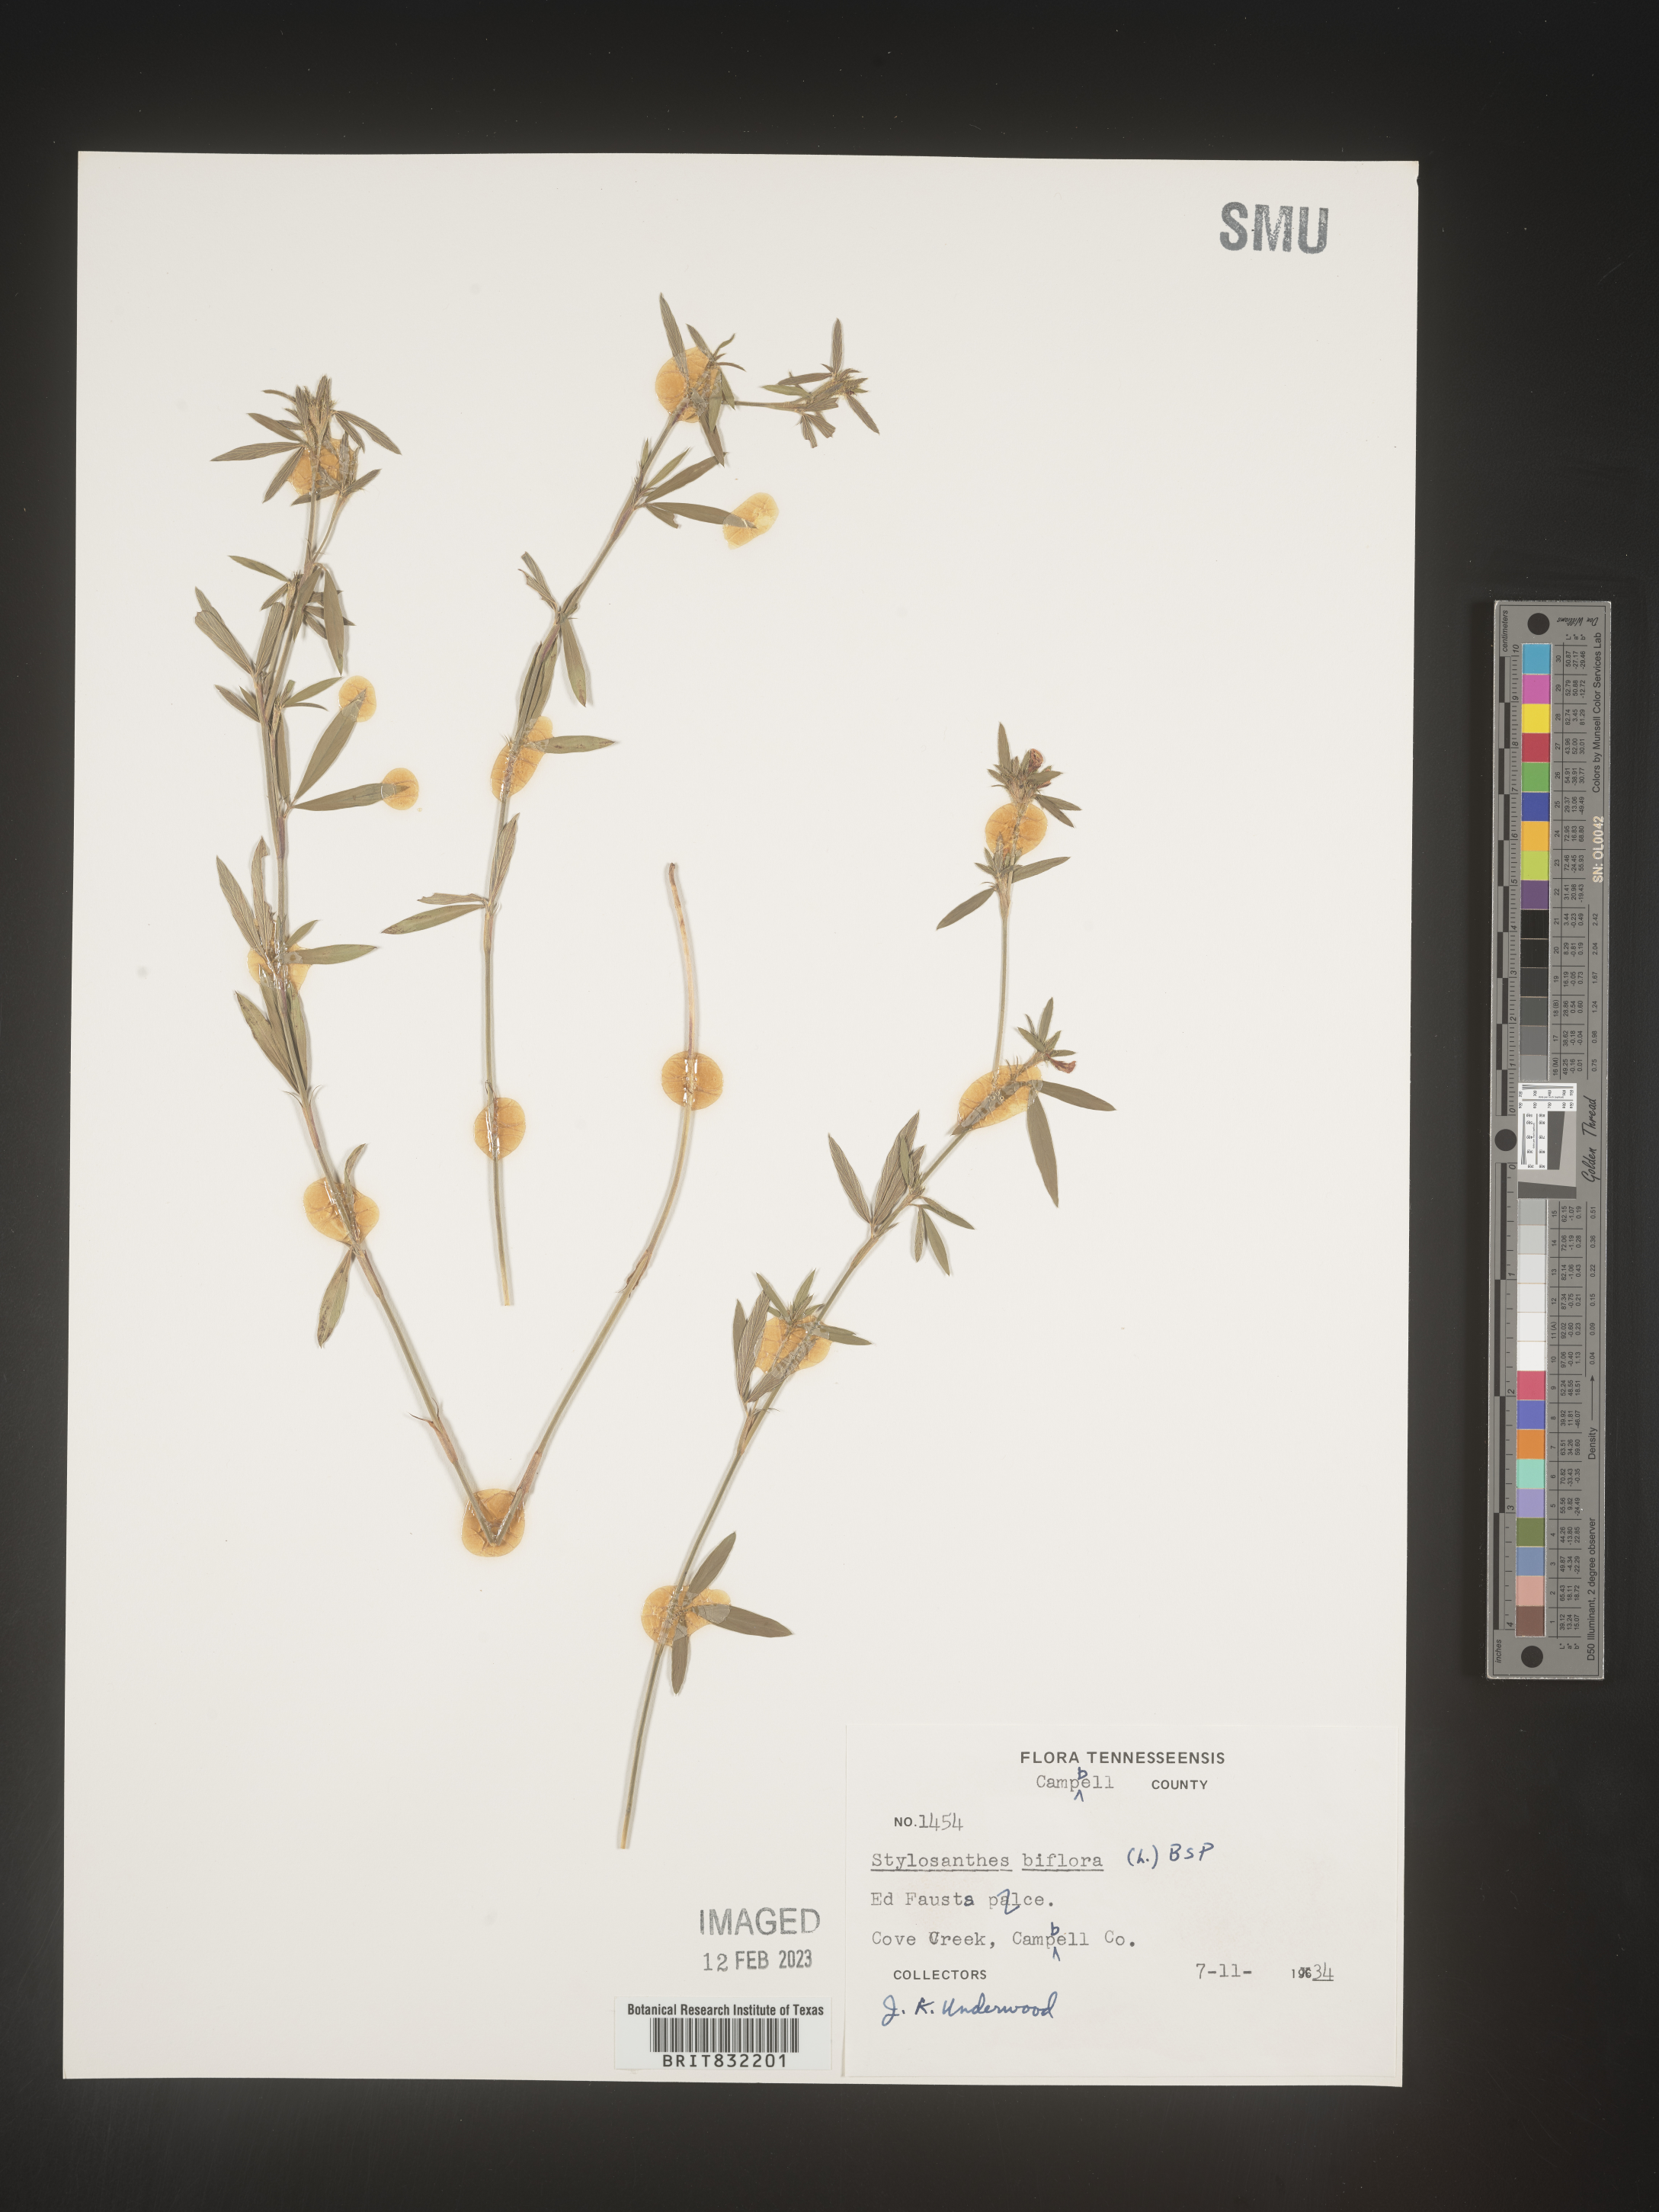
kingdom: Plantae
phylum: Tracheophyta
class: Magnoliopsida
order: Fabales
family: Fabaceae
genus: Stylosanthes
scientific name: Stylosanthes biflora
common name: Two-flower pencil-flower
